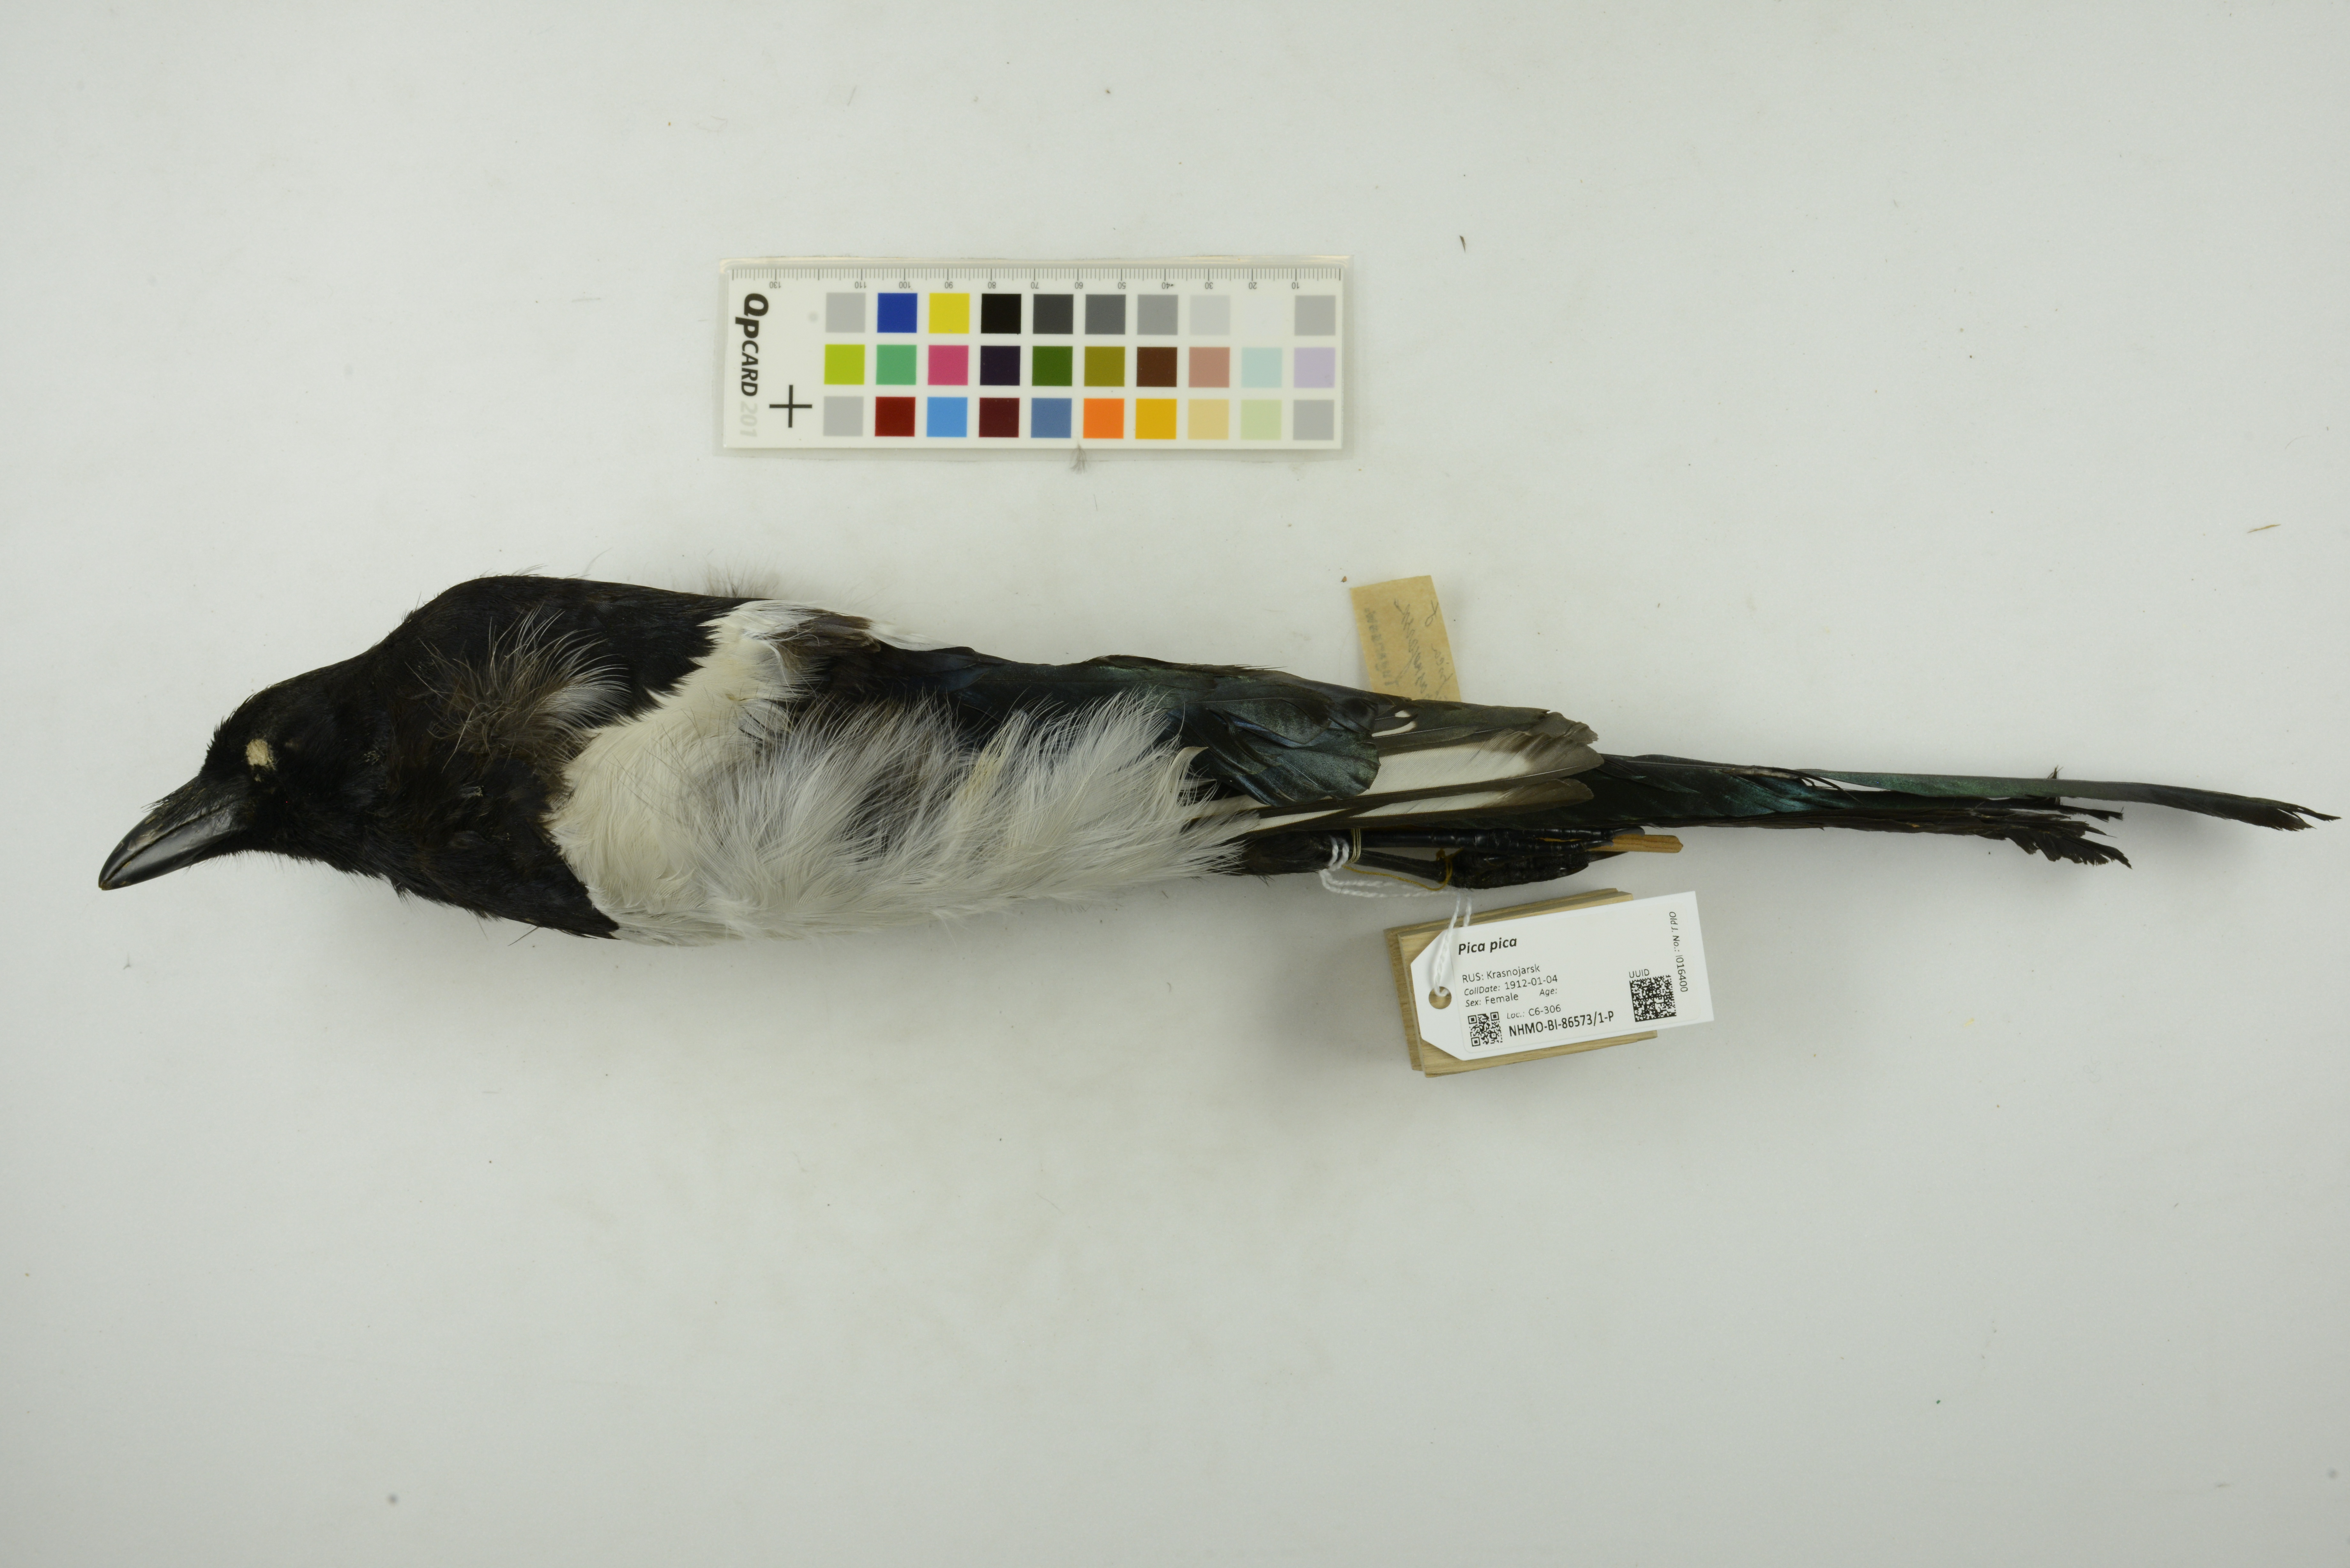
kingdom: Animalia
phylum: Chordata
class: Aves
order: Passeriformes
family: Corvidae
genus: Pica
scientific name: Pica pica
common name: Eurasian magpie
